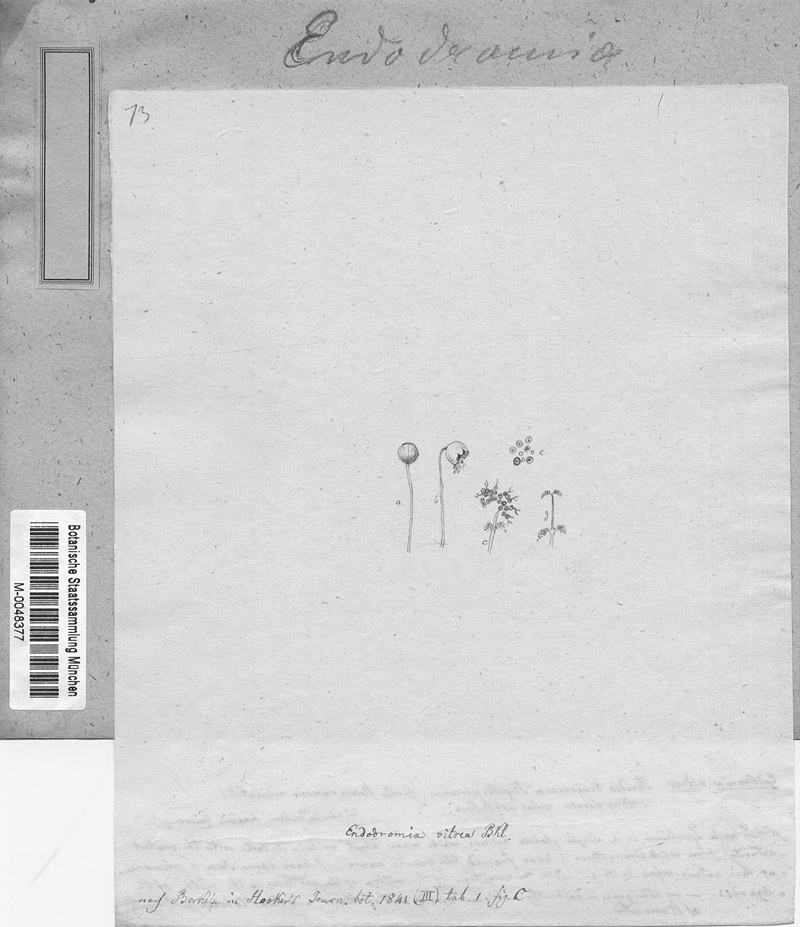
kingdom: Protozoa
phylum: Mycetozoa
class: Myxomycetes
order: Echinosteliales
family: Echinosteliaceae
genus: Echinostelium
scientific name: Echinostelium minutum
